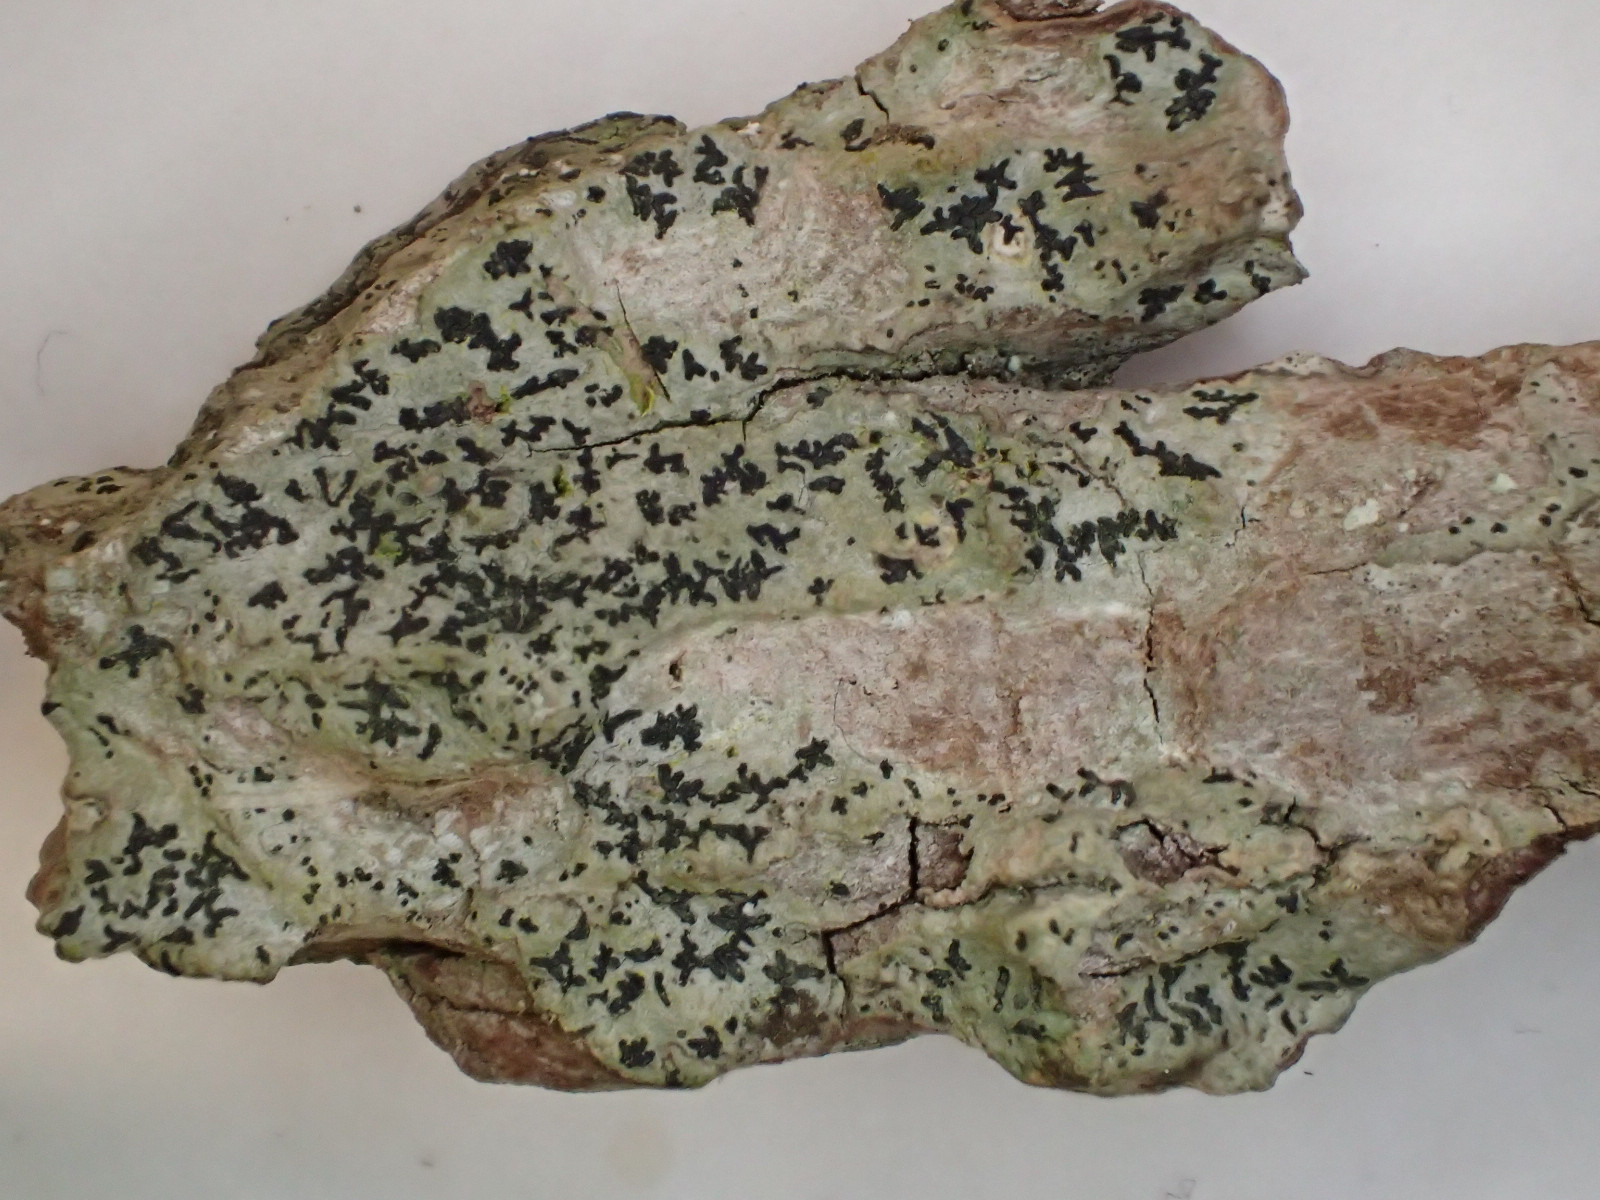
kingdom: Fungi
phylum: Ascomycota
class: Arthoniomycetes
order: Arthoniales
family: Lecanographaceae
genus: Alyxoria
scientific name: Alyxoria varia
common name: almindelig bogstavlav
